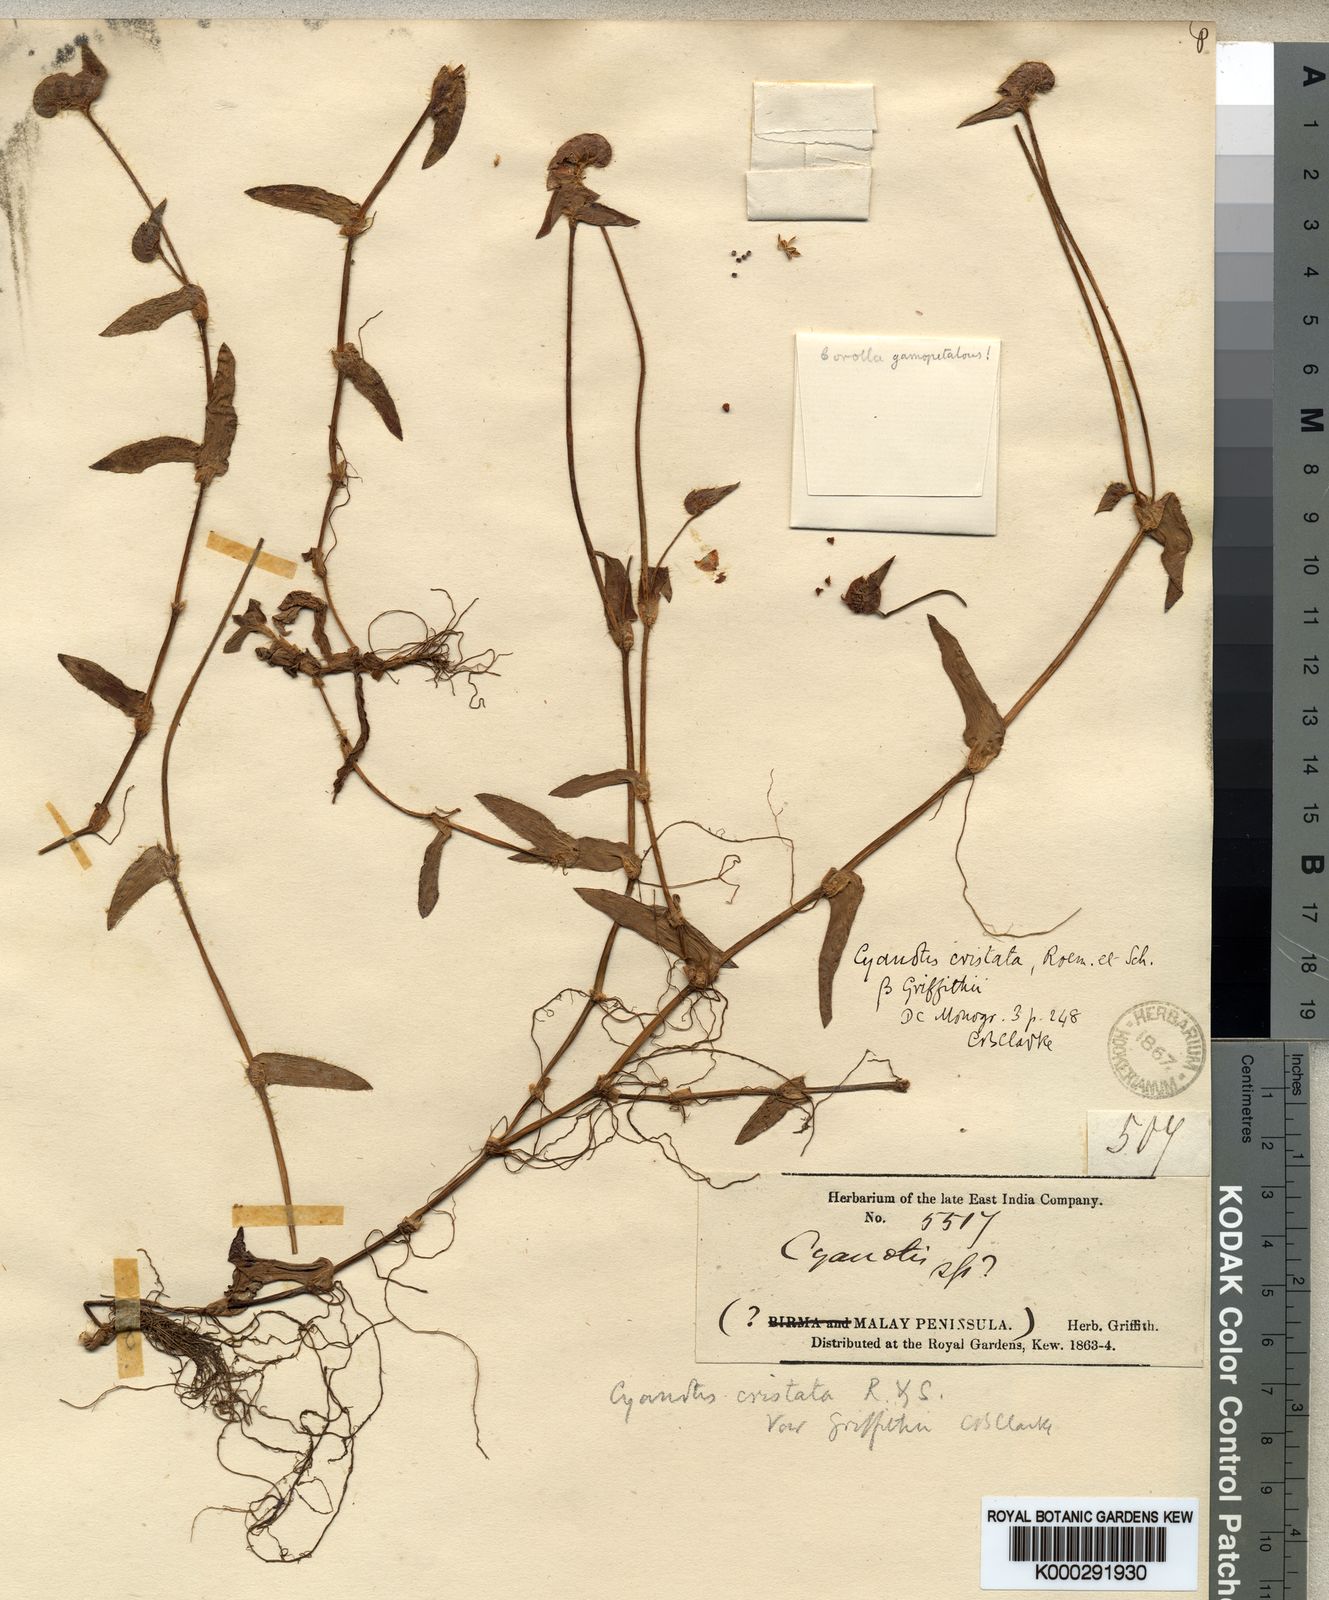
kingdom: Plantae
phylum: Tracheophyta
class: Liliopsida
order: Commelinales
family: Commelinaceae
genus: Cyanotis
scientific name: Cyanotis cristata
